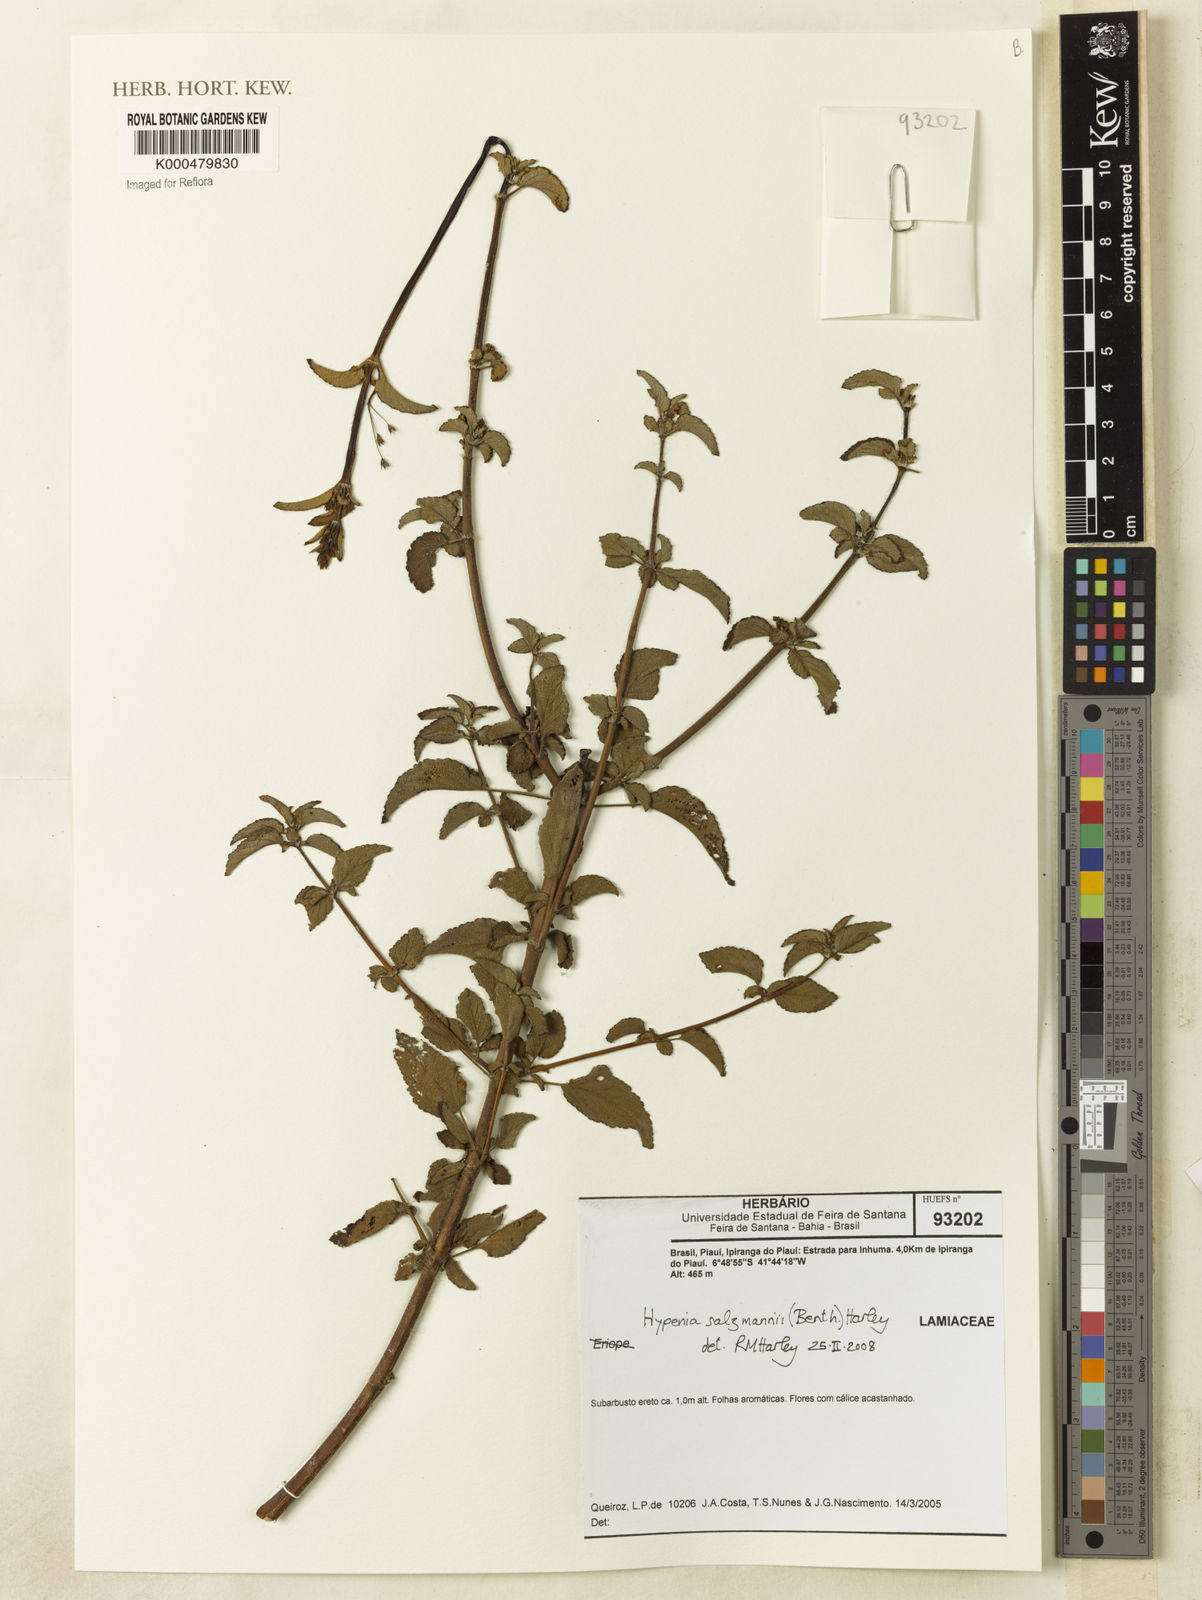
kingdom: Plantae
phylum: Tracheophyta
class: Magnoliopsida
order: Lamiales
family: Lamiaceae
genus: Hypenia
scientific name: Hypenia salzmannii
